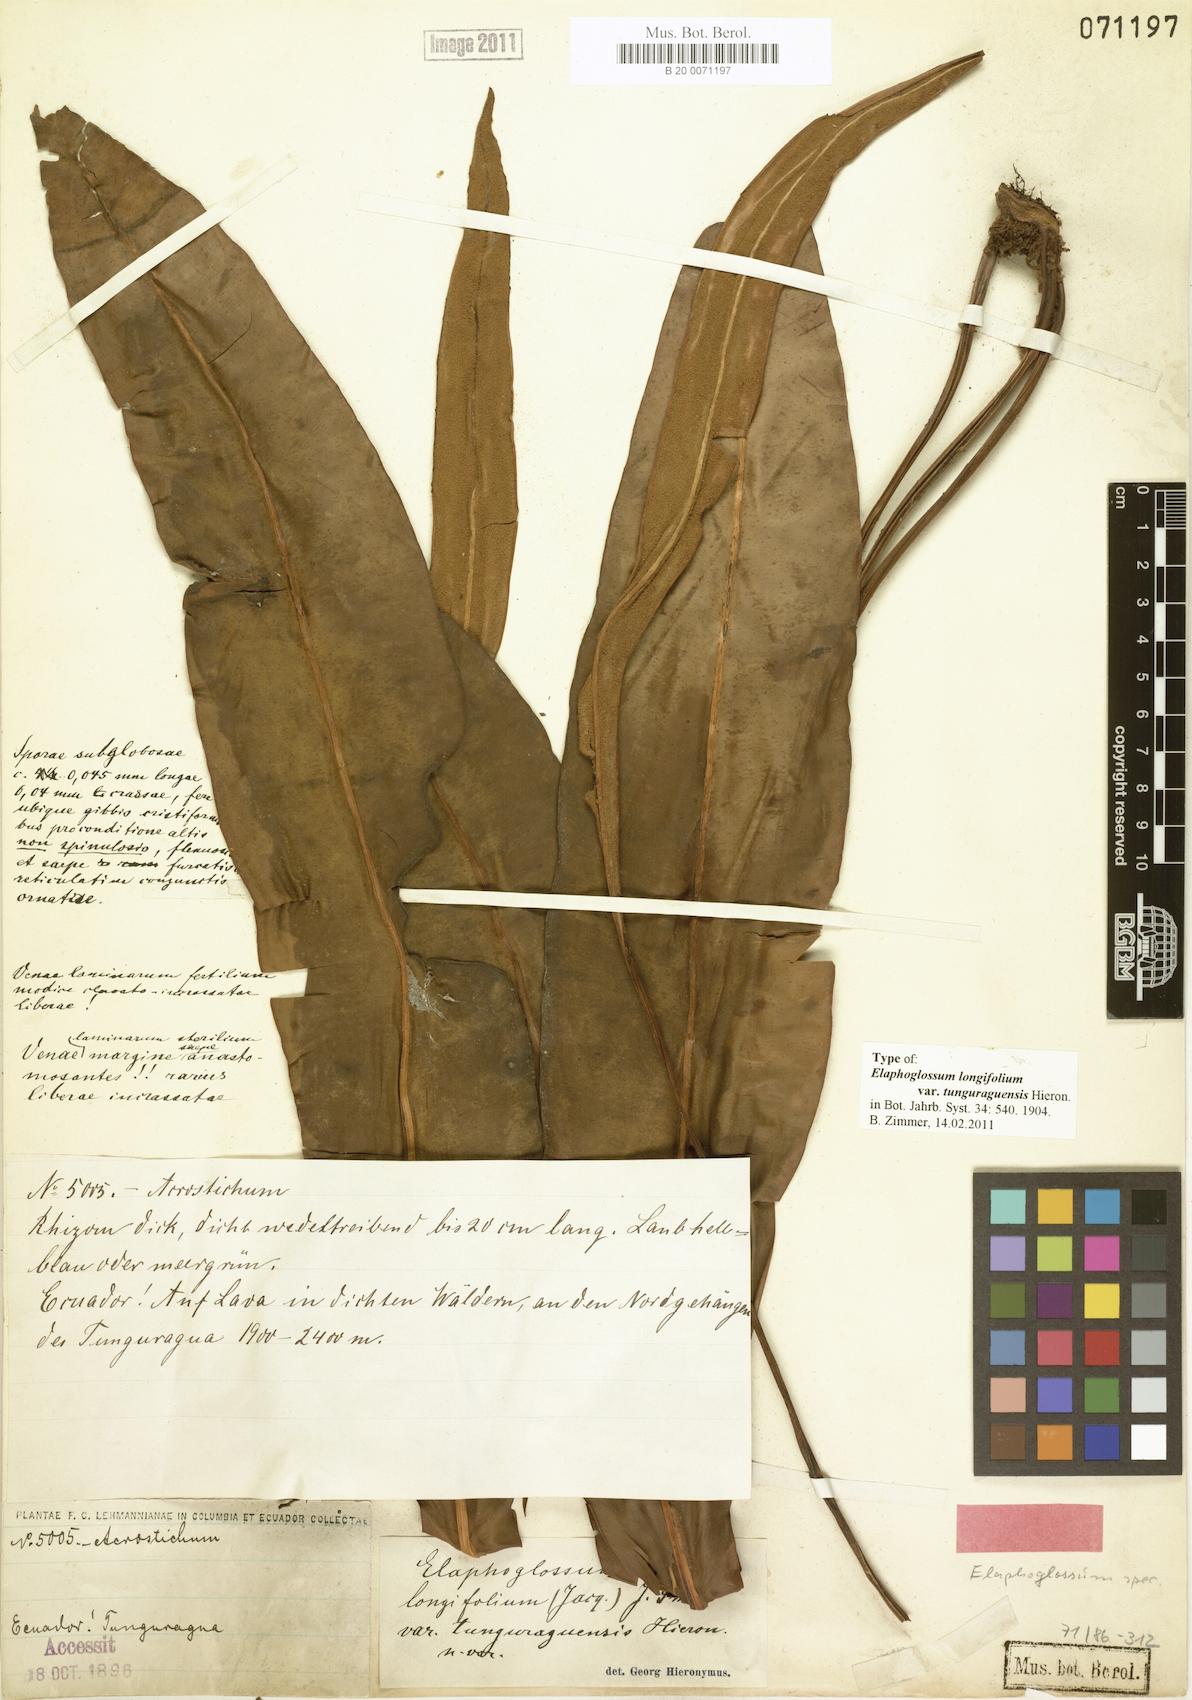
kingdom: Plantae
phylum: Tracheophyta
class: Polypodiopsida
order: Polypodiales
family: Dryopteridaceae
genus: Elaphoglossum
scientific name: Elaphoglossum longifolium
